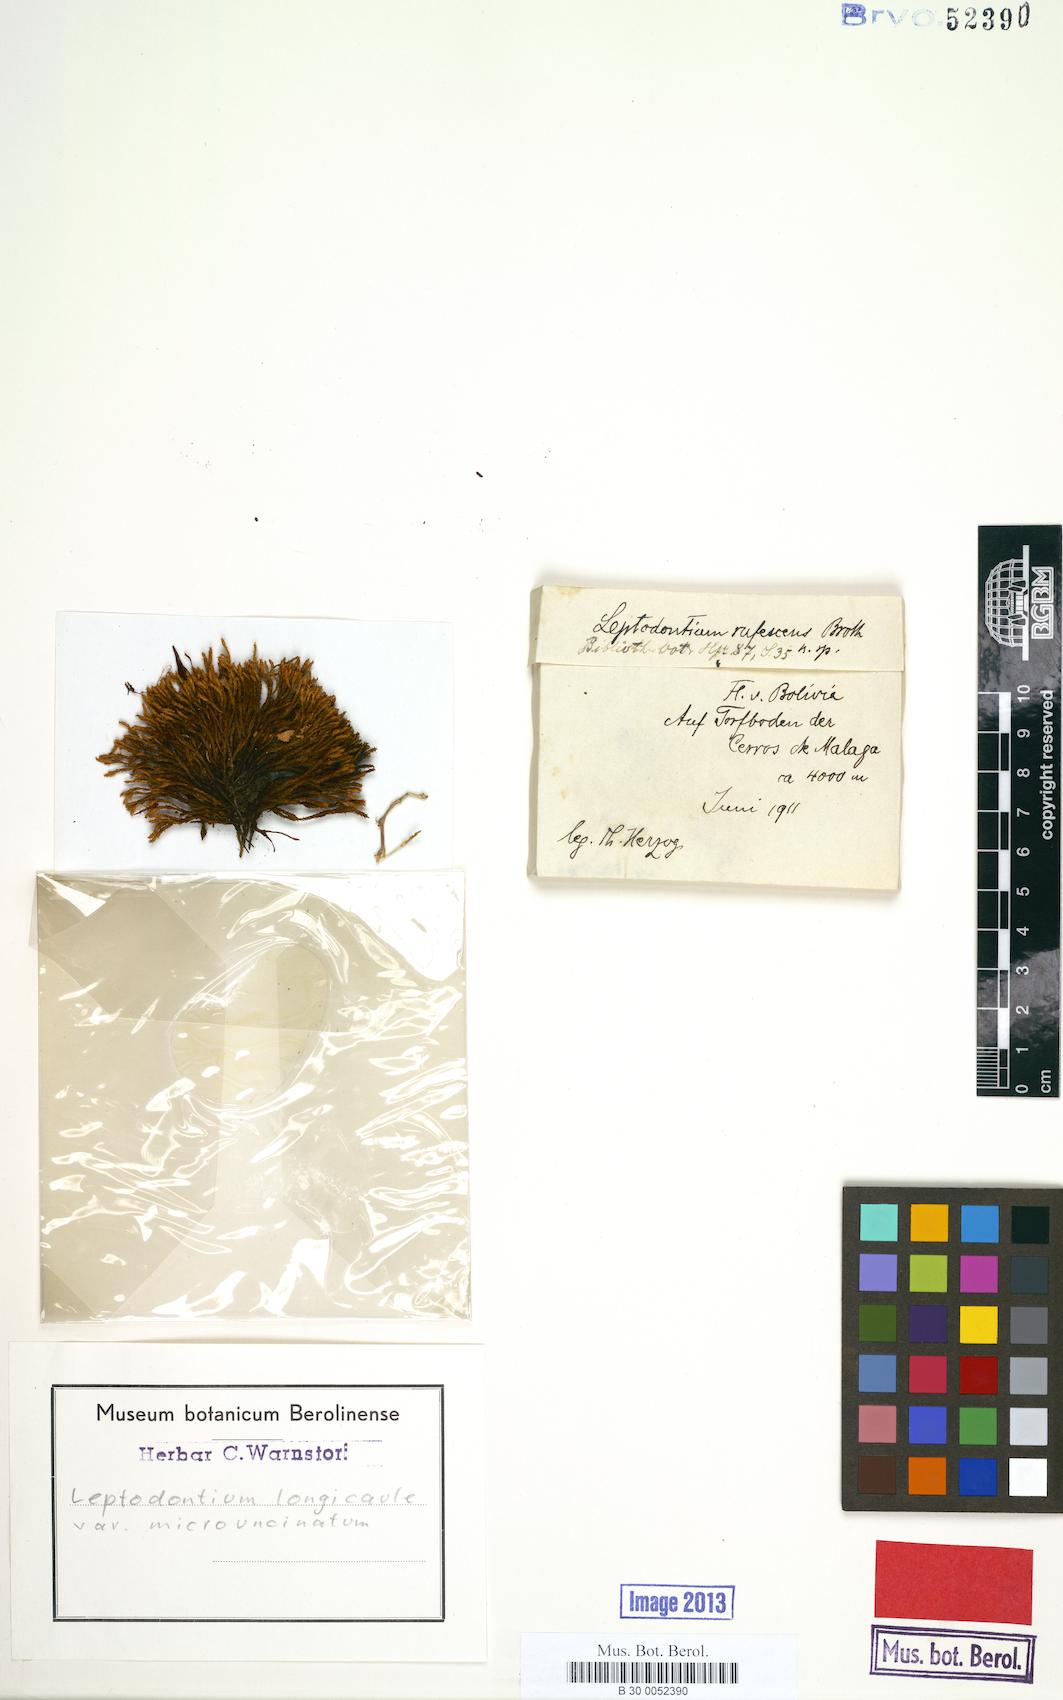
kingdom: Plantae
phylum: Bryophyta
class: Bryopsida
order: Pottiales
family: Pottiaceae
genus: Leptodontium
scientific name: Leptodontium longicaule
